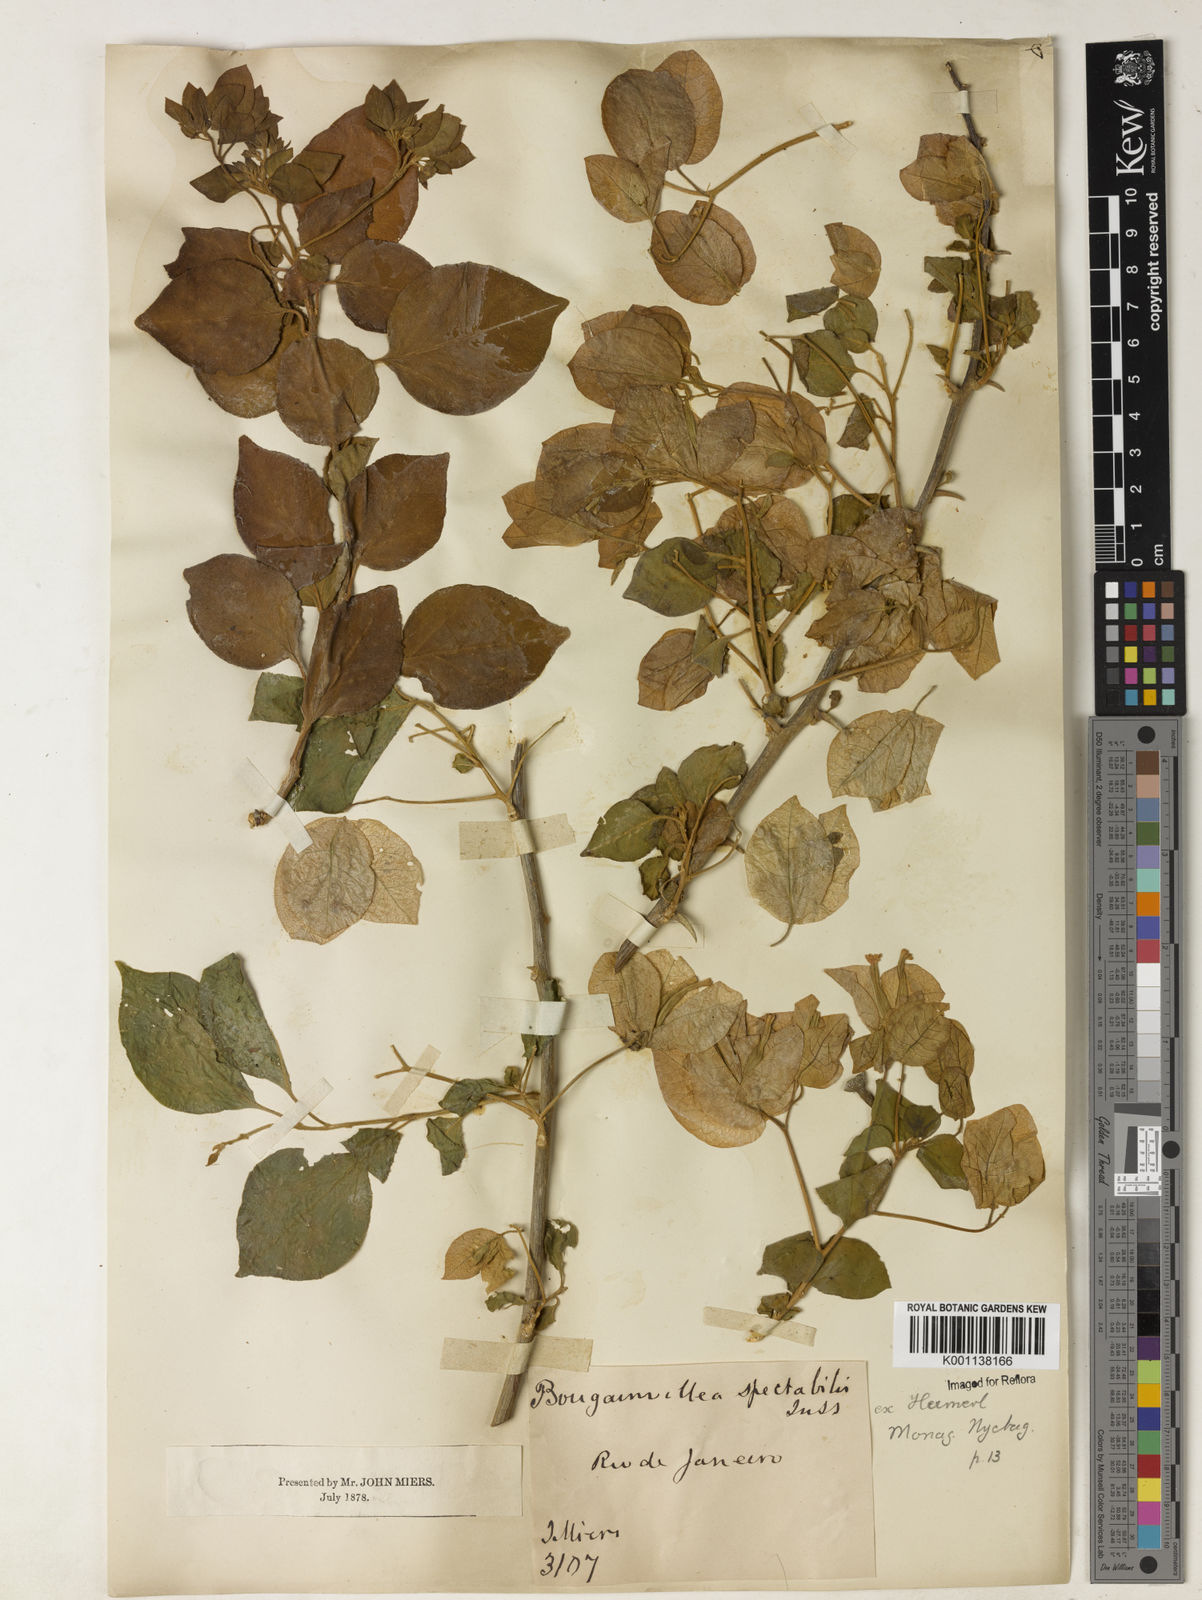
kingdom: Plantae
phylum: Tracheophyta
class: Magnoliopsida
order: Caryophyllales
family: Nyctaginaceae
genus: Bougainvillea
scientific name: Bougainvillea spectabilis
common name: Great bougainvillea
